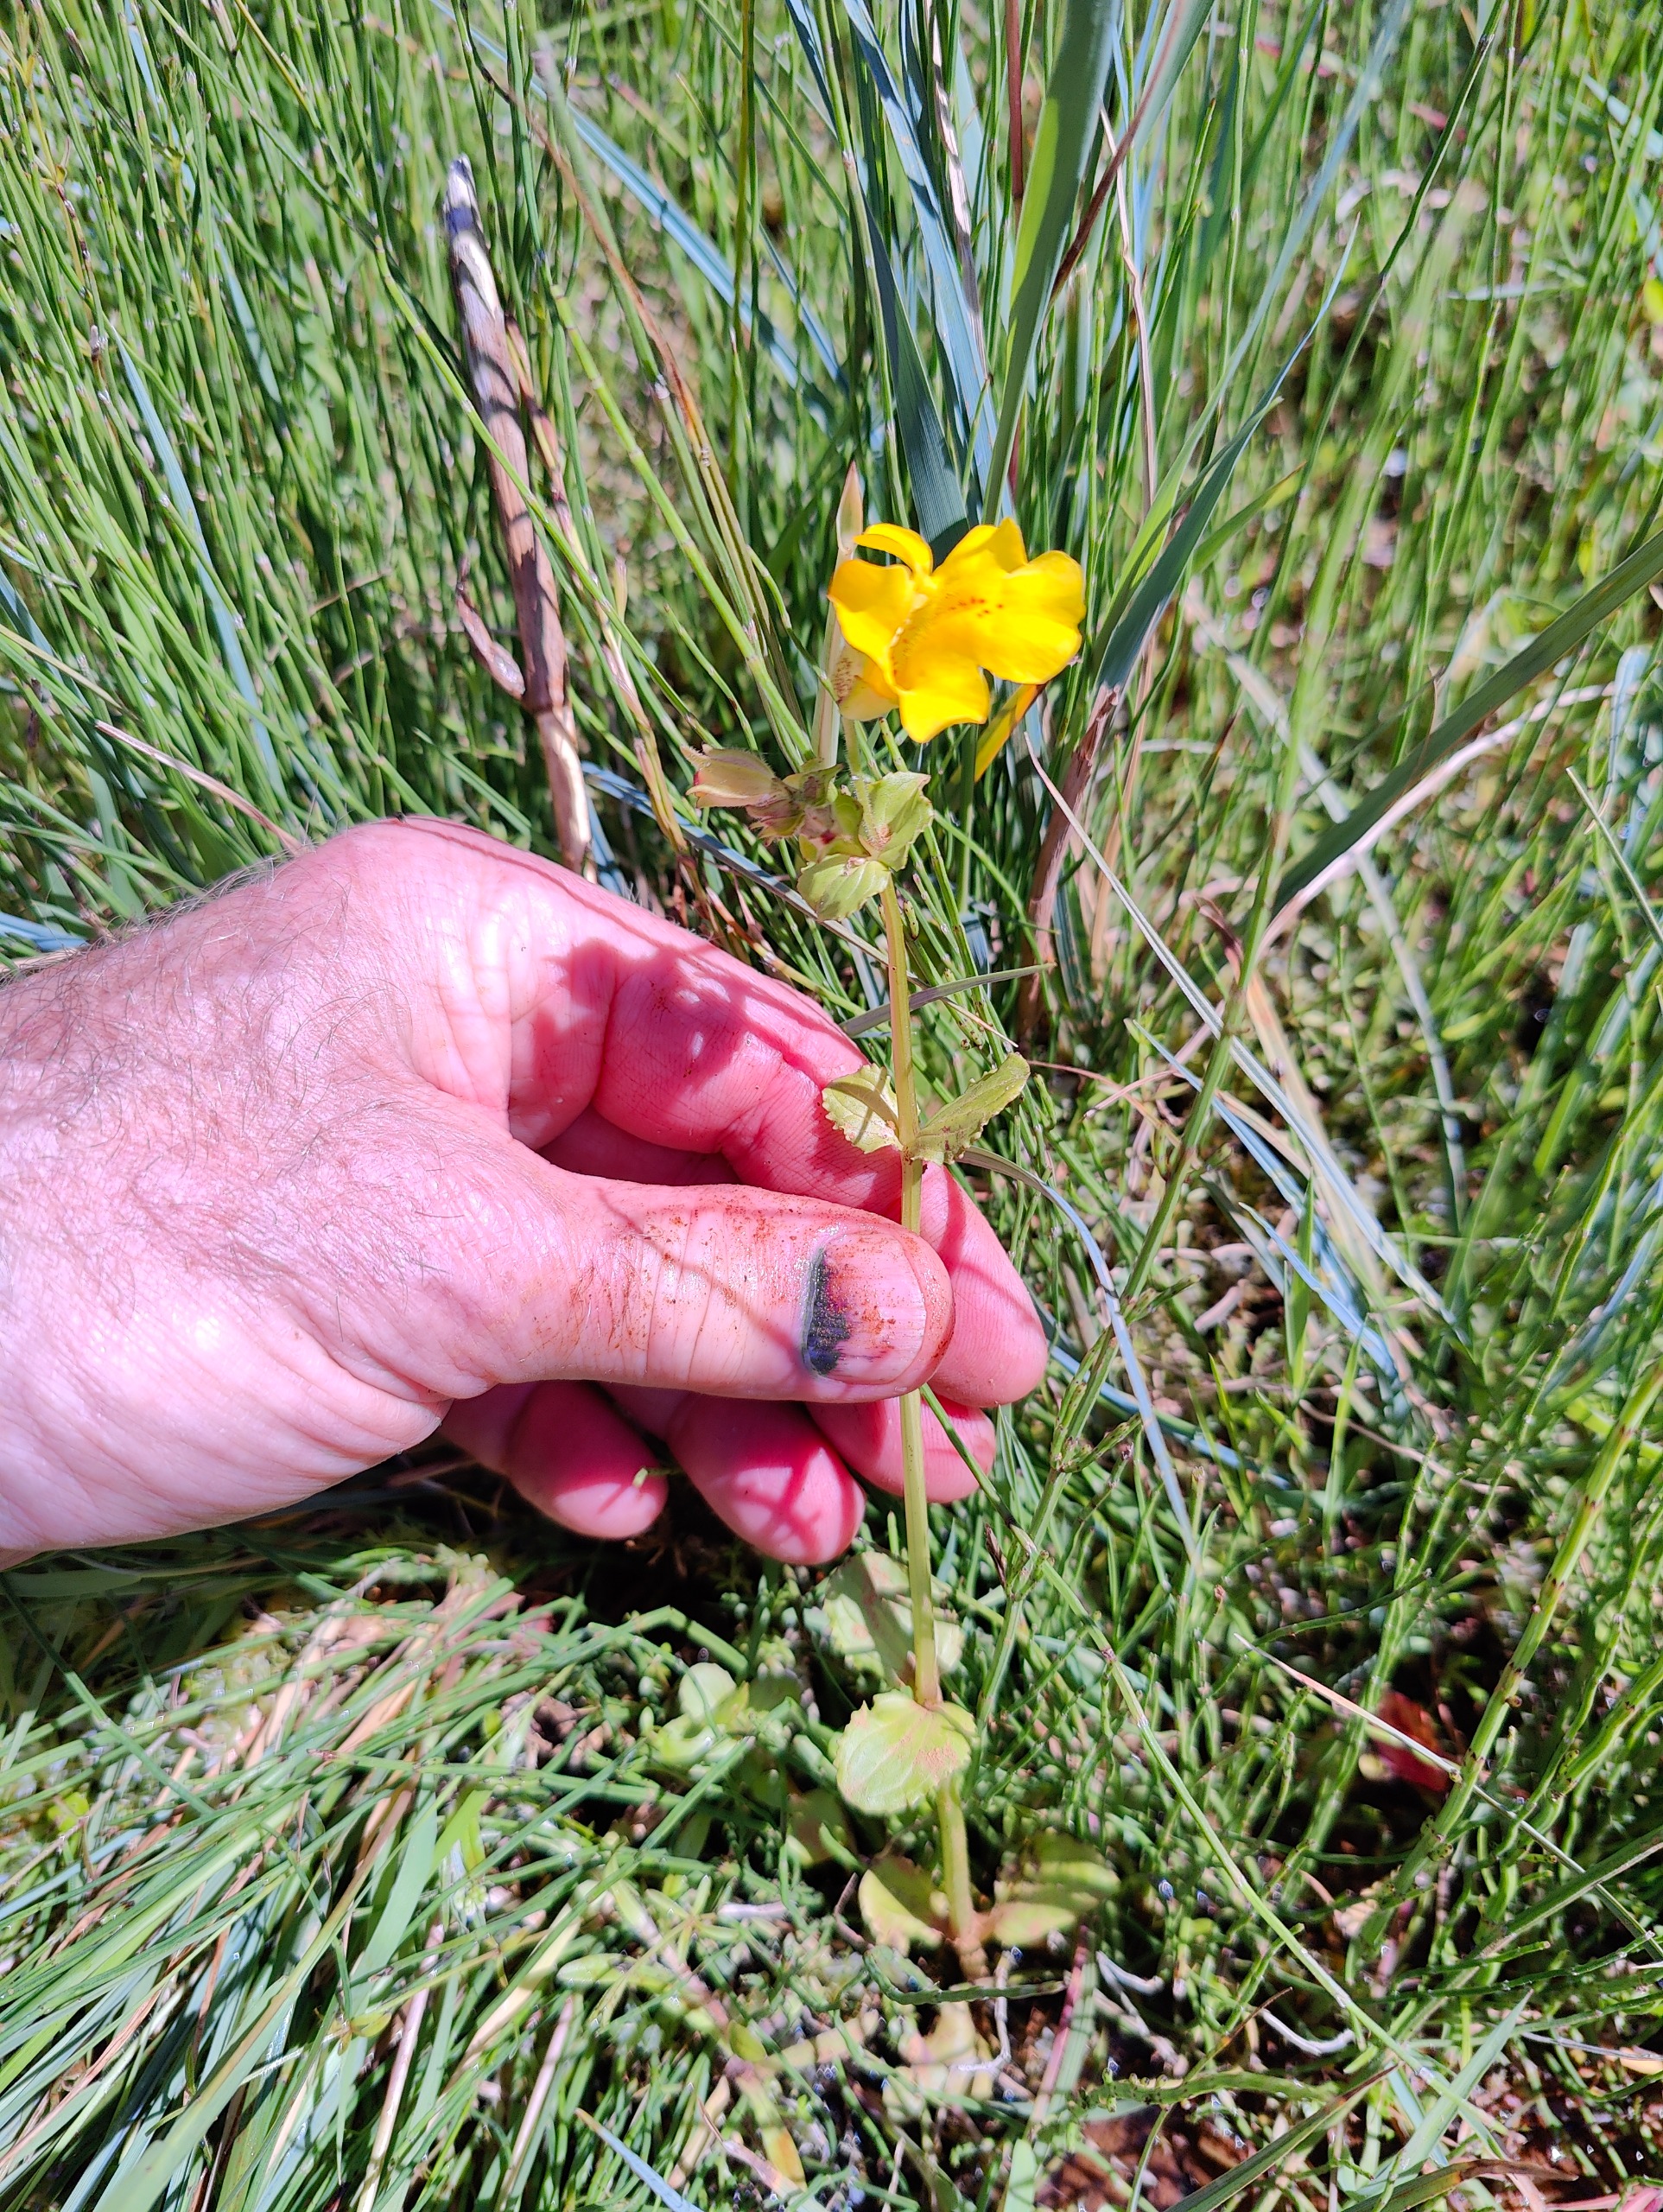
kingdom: Plantae
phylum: Tracheophyta
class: Magnoliopsida
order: Lamiales
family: Phrymaceae
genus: Erythranthe
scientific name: Erythranthe guttata
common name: Abeblomst
